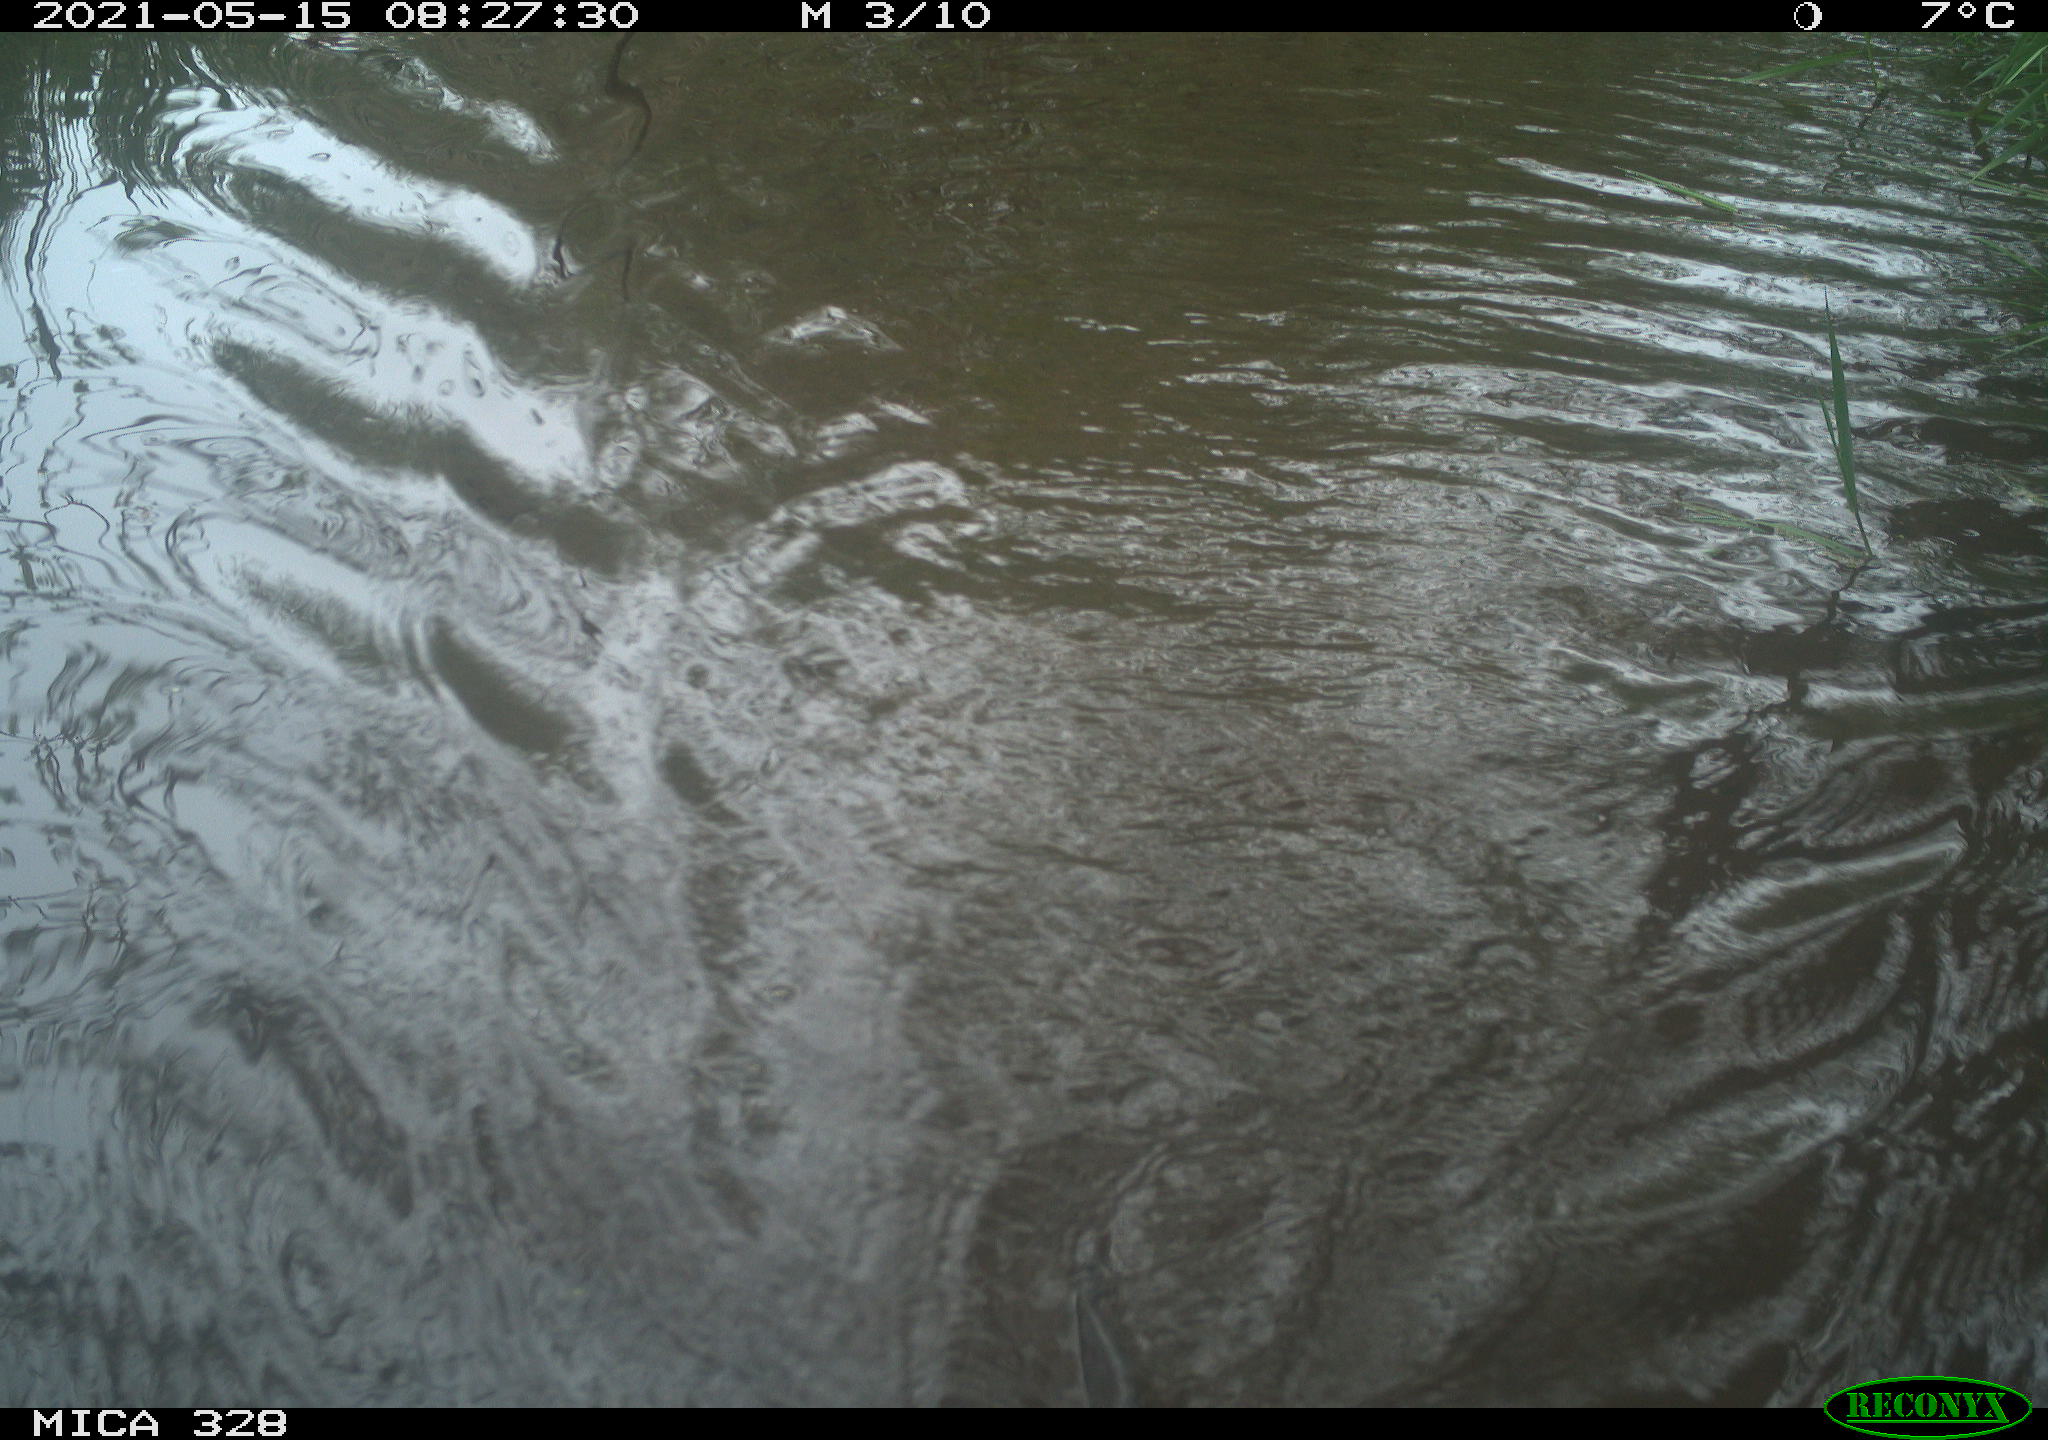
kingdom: Animalia
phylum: Chordata
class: Mammalia
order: Rodentia
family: Cricetidae
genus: Ondatra
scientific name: Ondatra zibethicus
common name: Muskrat
